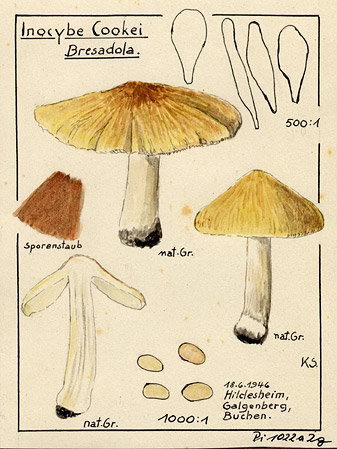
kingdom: Fungi
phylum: Basidiomycota
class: Agaricomycetes
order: Agaricales
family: Inocybaceae
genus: Inosperma
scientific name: Inosperma cookei
